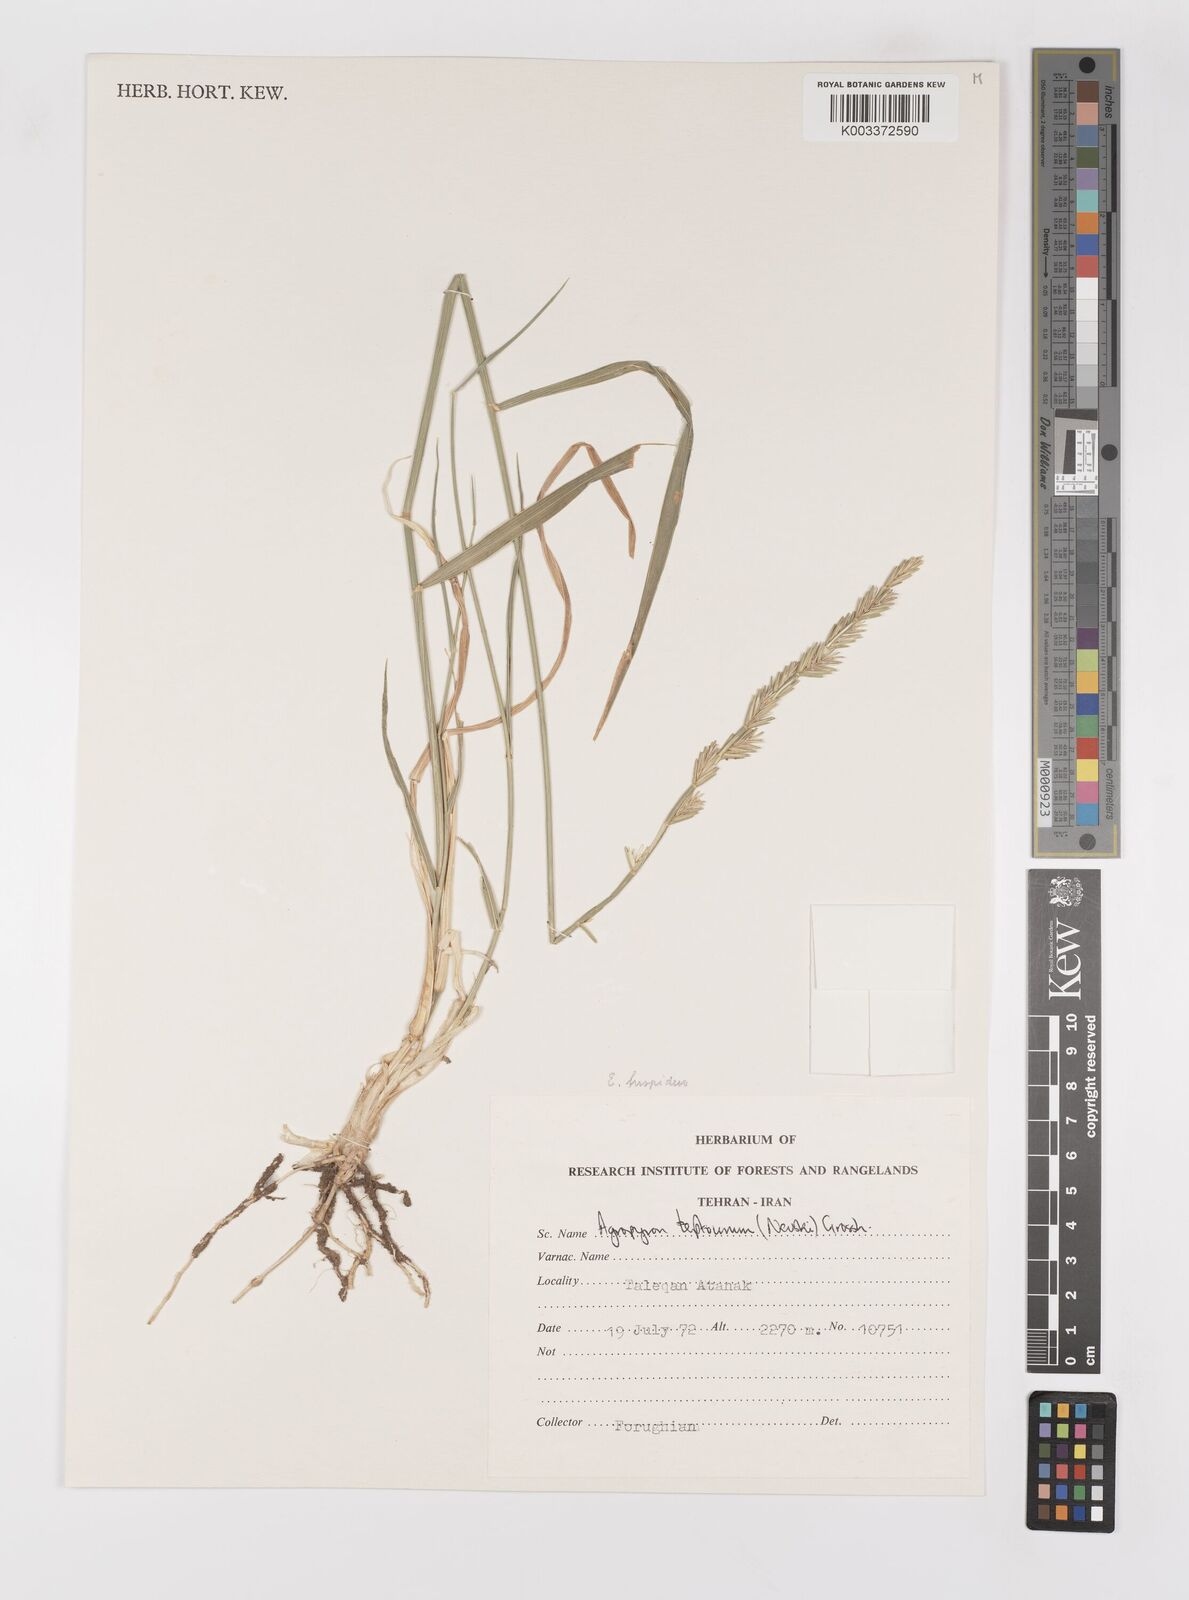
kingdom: Plantae
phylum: Tracheophyta
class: Liliopsida
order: Poales
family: Poaceae
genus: Elymus
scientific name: Elymus transhyrcanus
